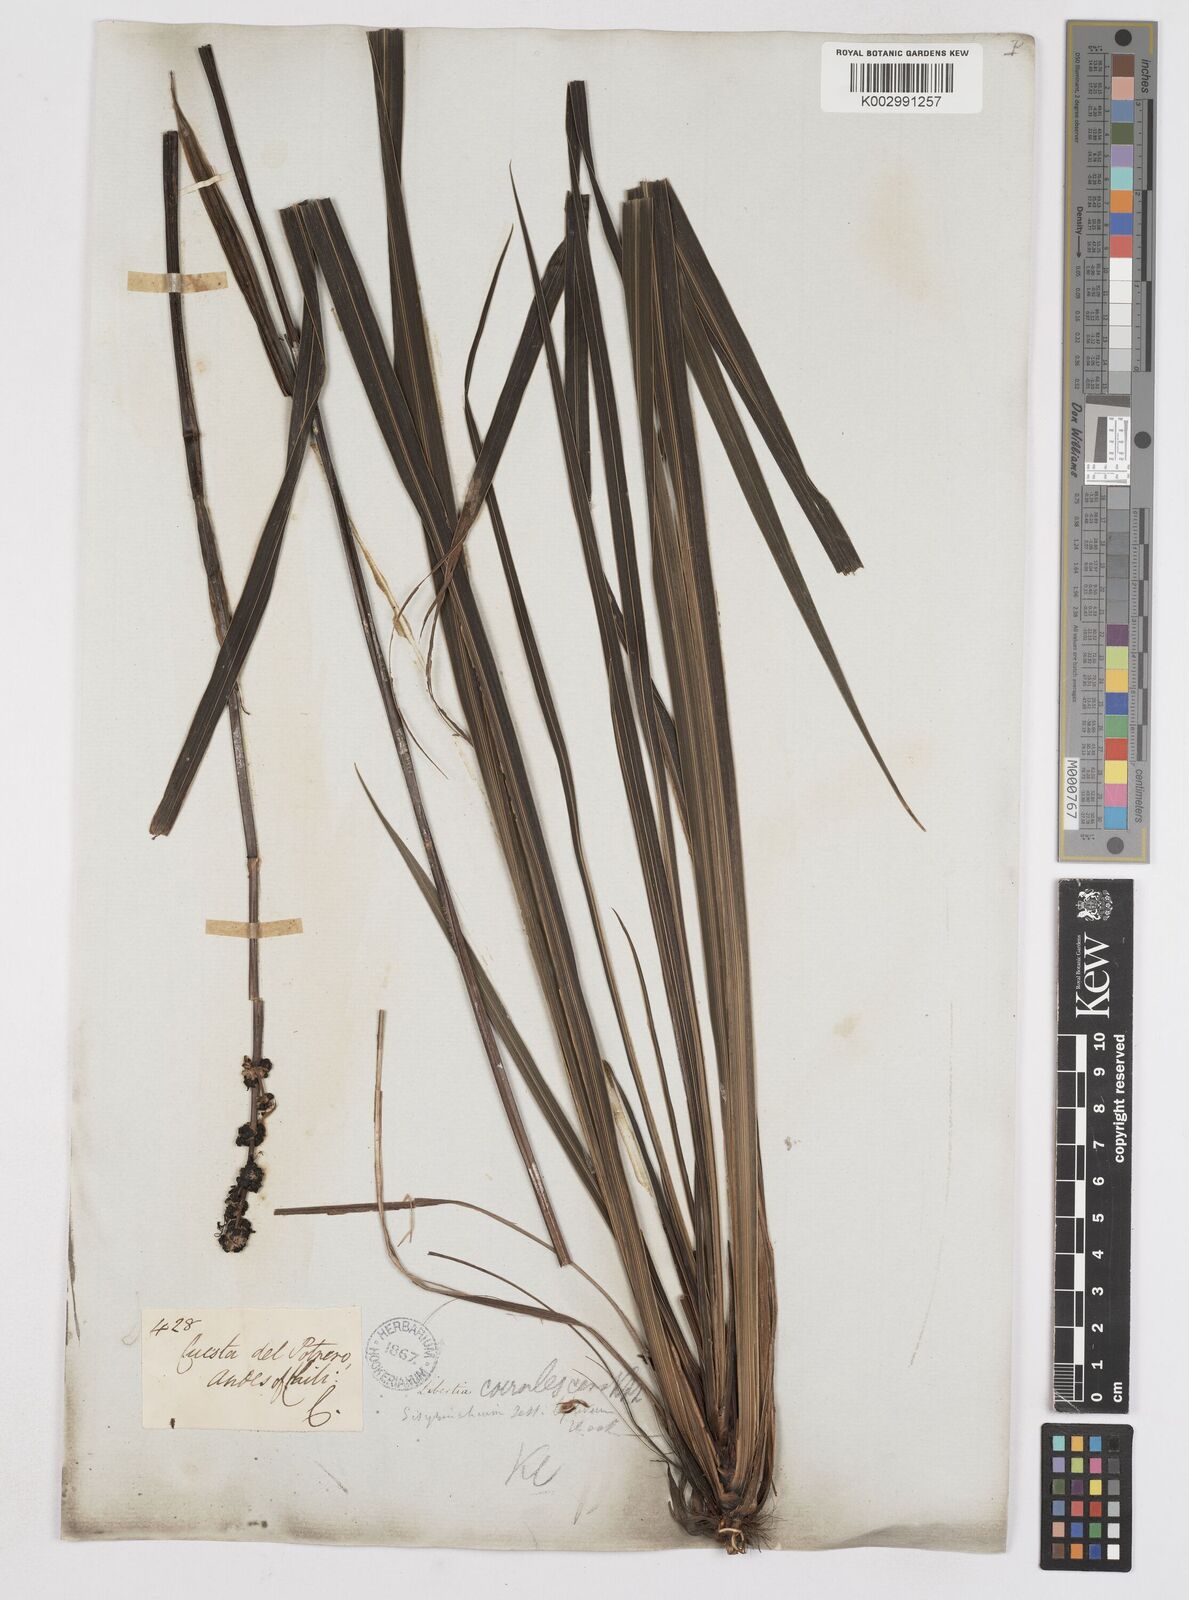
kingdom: Plantae
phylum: Tracheophyta
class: Liliopsida
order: Asparagales
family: Iridaceae
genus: Libertia
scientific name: Libertia sessiliflora
